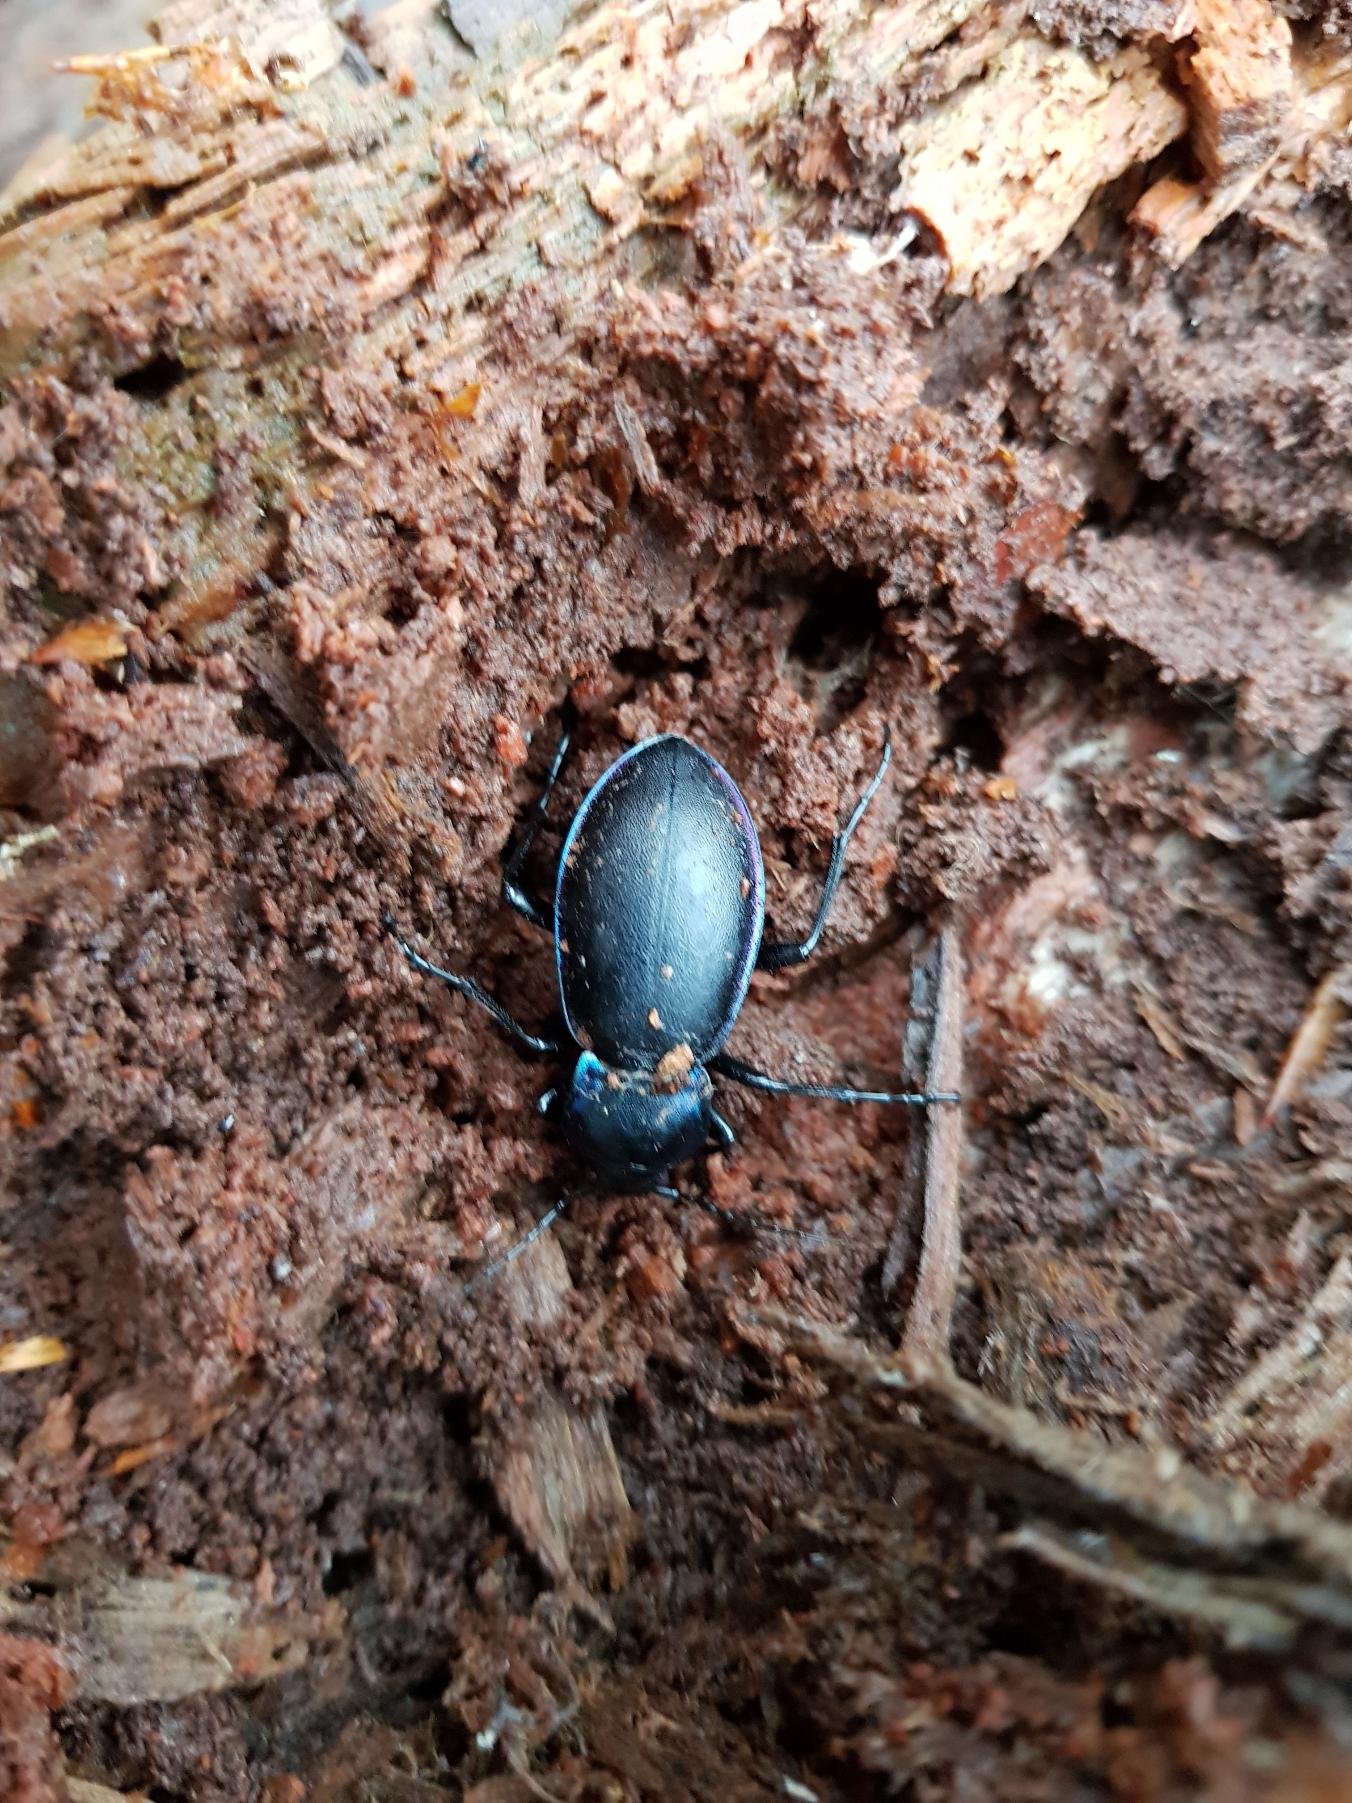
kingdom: Animalia
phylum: Arthropoda
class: Insecta
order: Coleoptera
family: Carabidae
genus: Carabus
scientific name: Carabus violaceus
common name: Violetrandet løber
